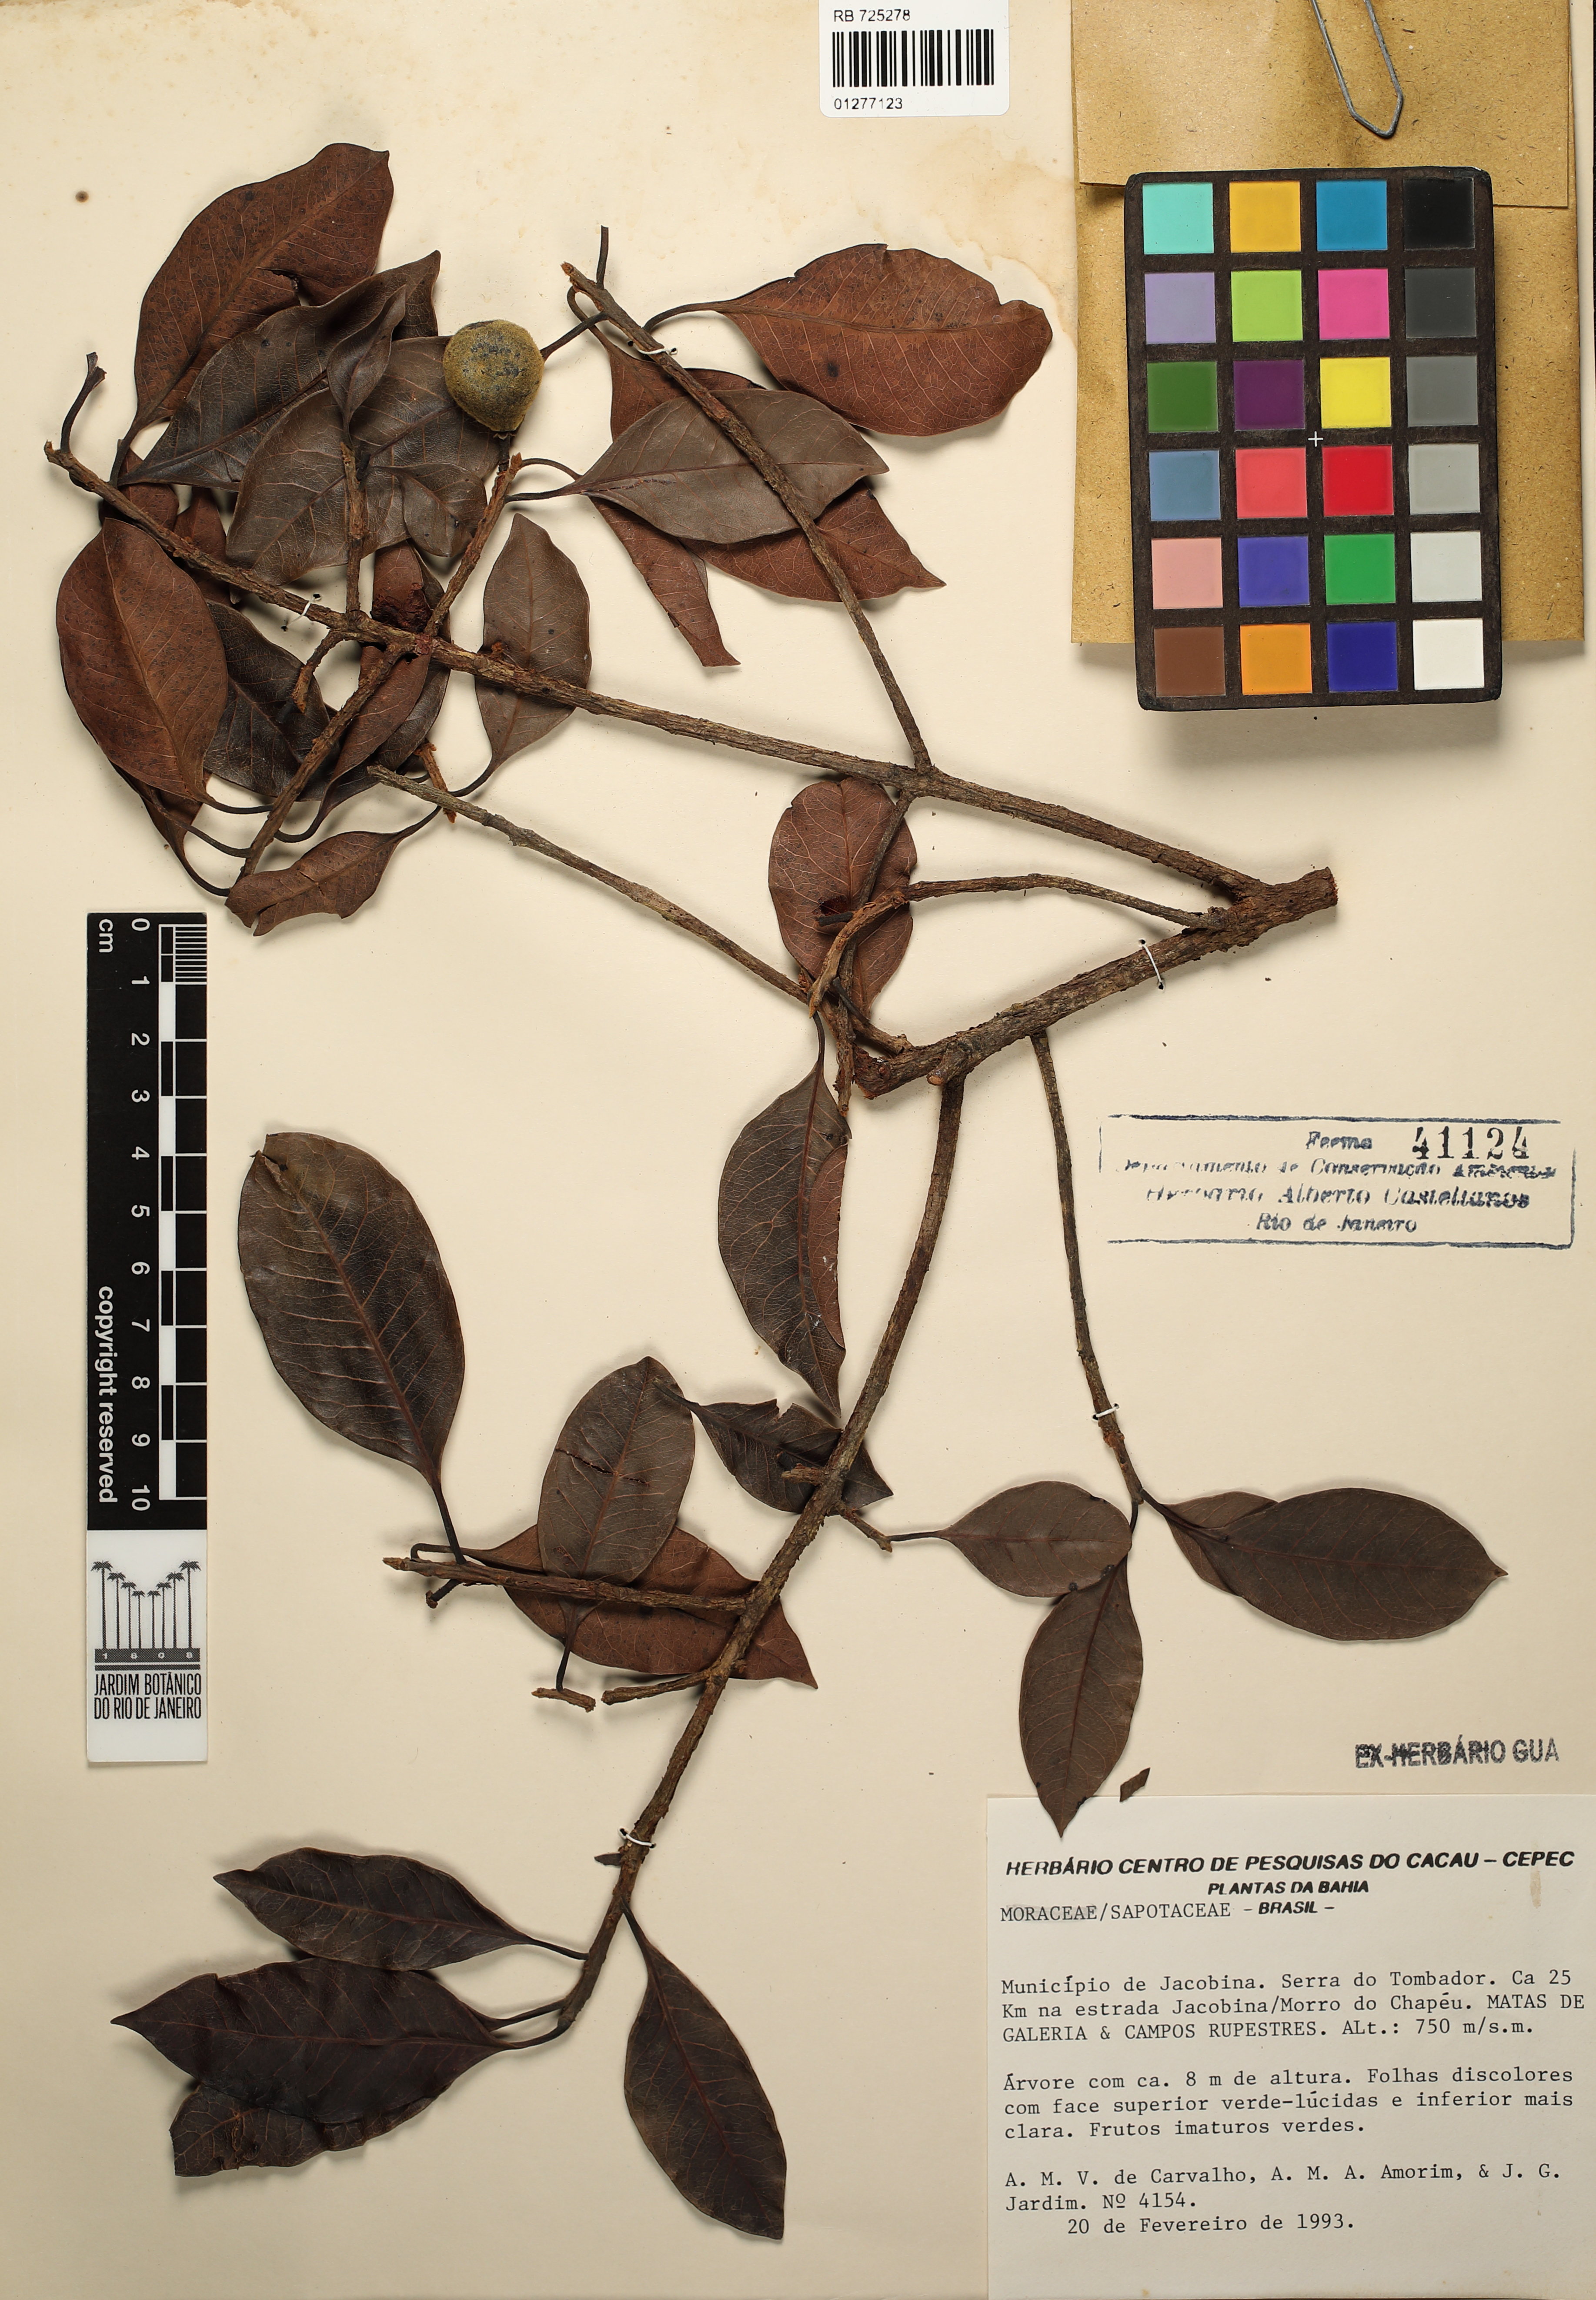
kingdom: Plantae
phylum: Tracheophyta
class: Magnoliopsida
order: Ericales
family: Sapotaceae
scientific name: Sapotaceae
